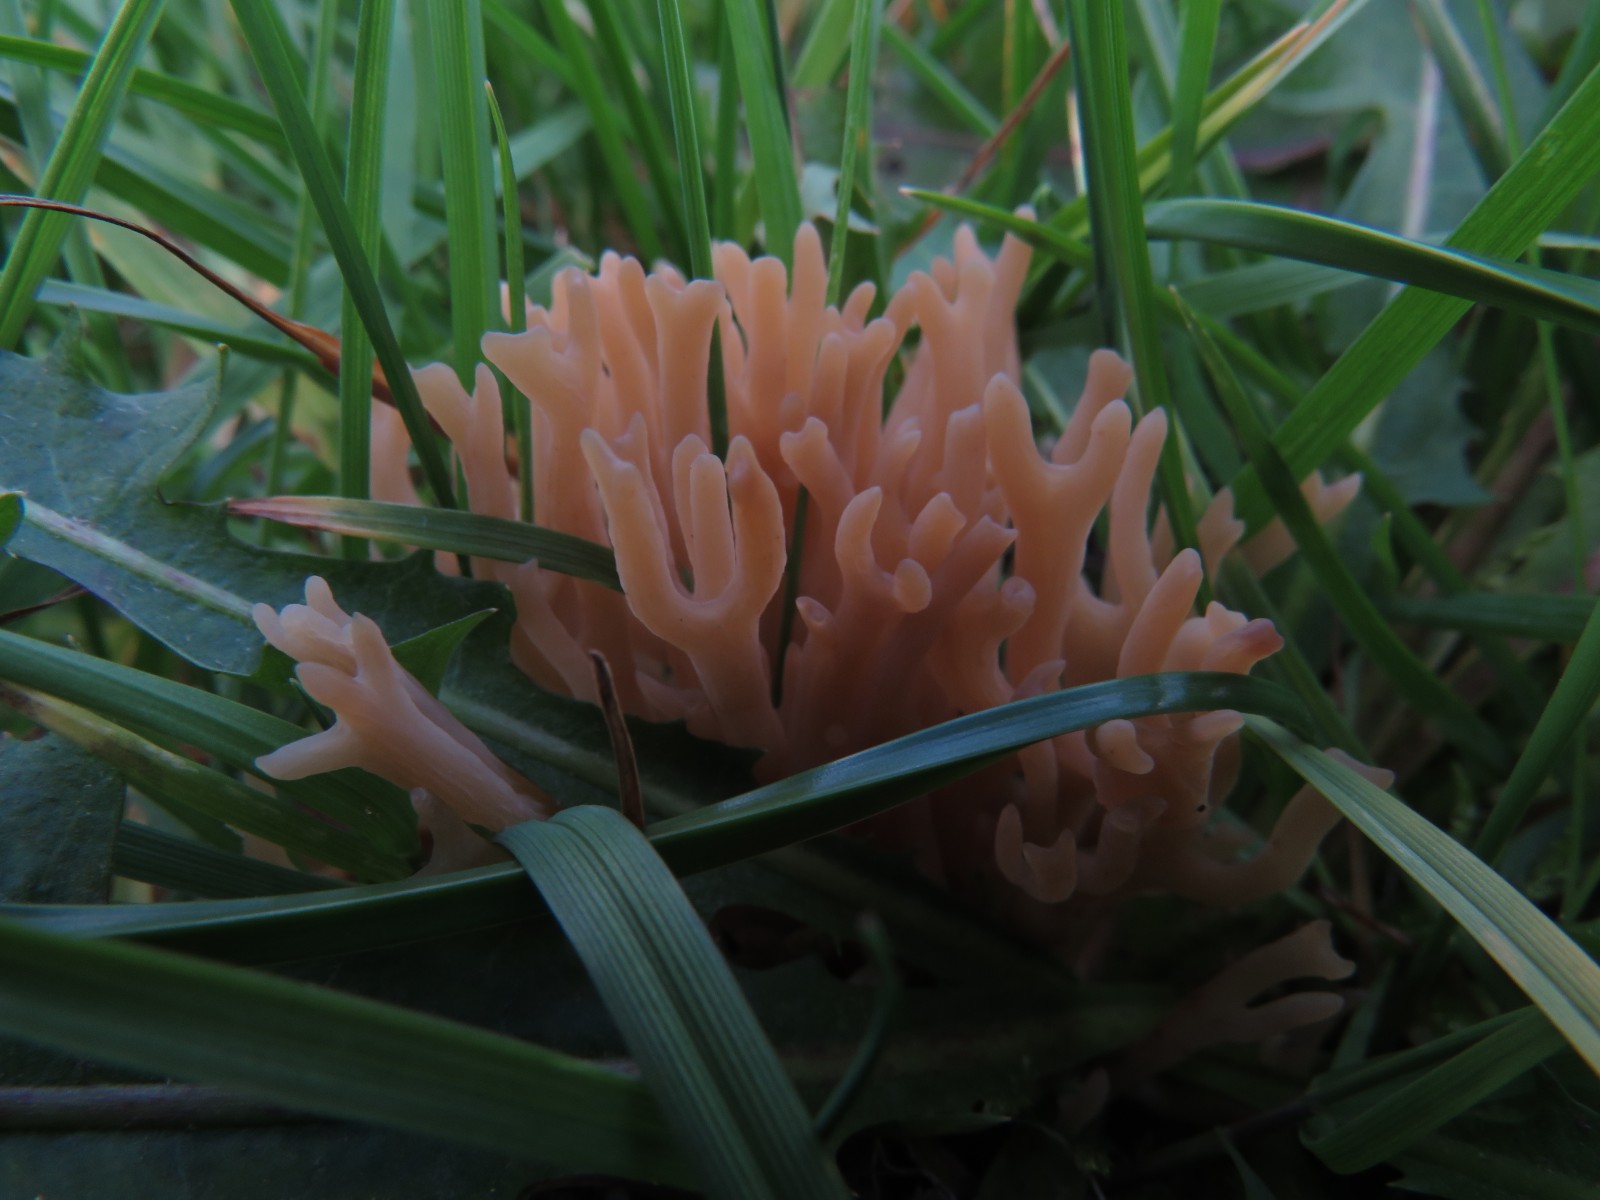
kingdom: Fungi
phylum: Basidiomycota
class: Agaricomycetes
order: Agaricales
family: Clavariaceae
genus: Clavulinopsis
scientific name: Clavulinopsis umbrinella
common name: gulgrå køllesvamp
